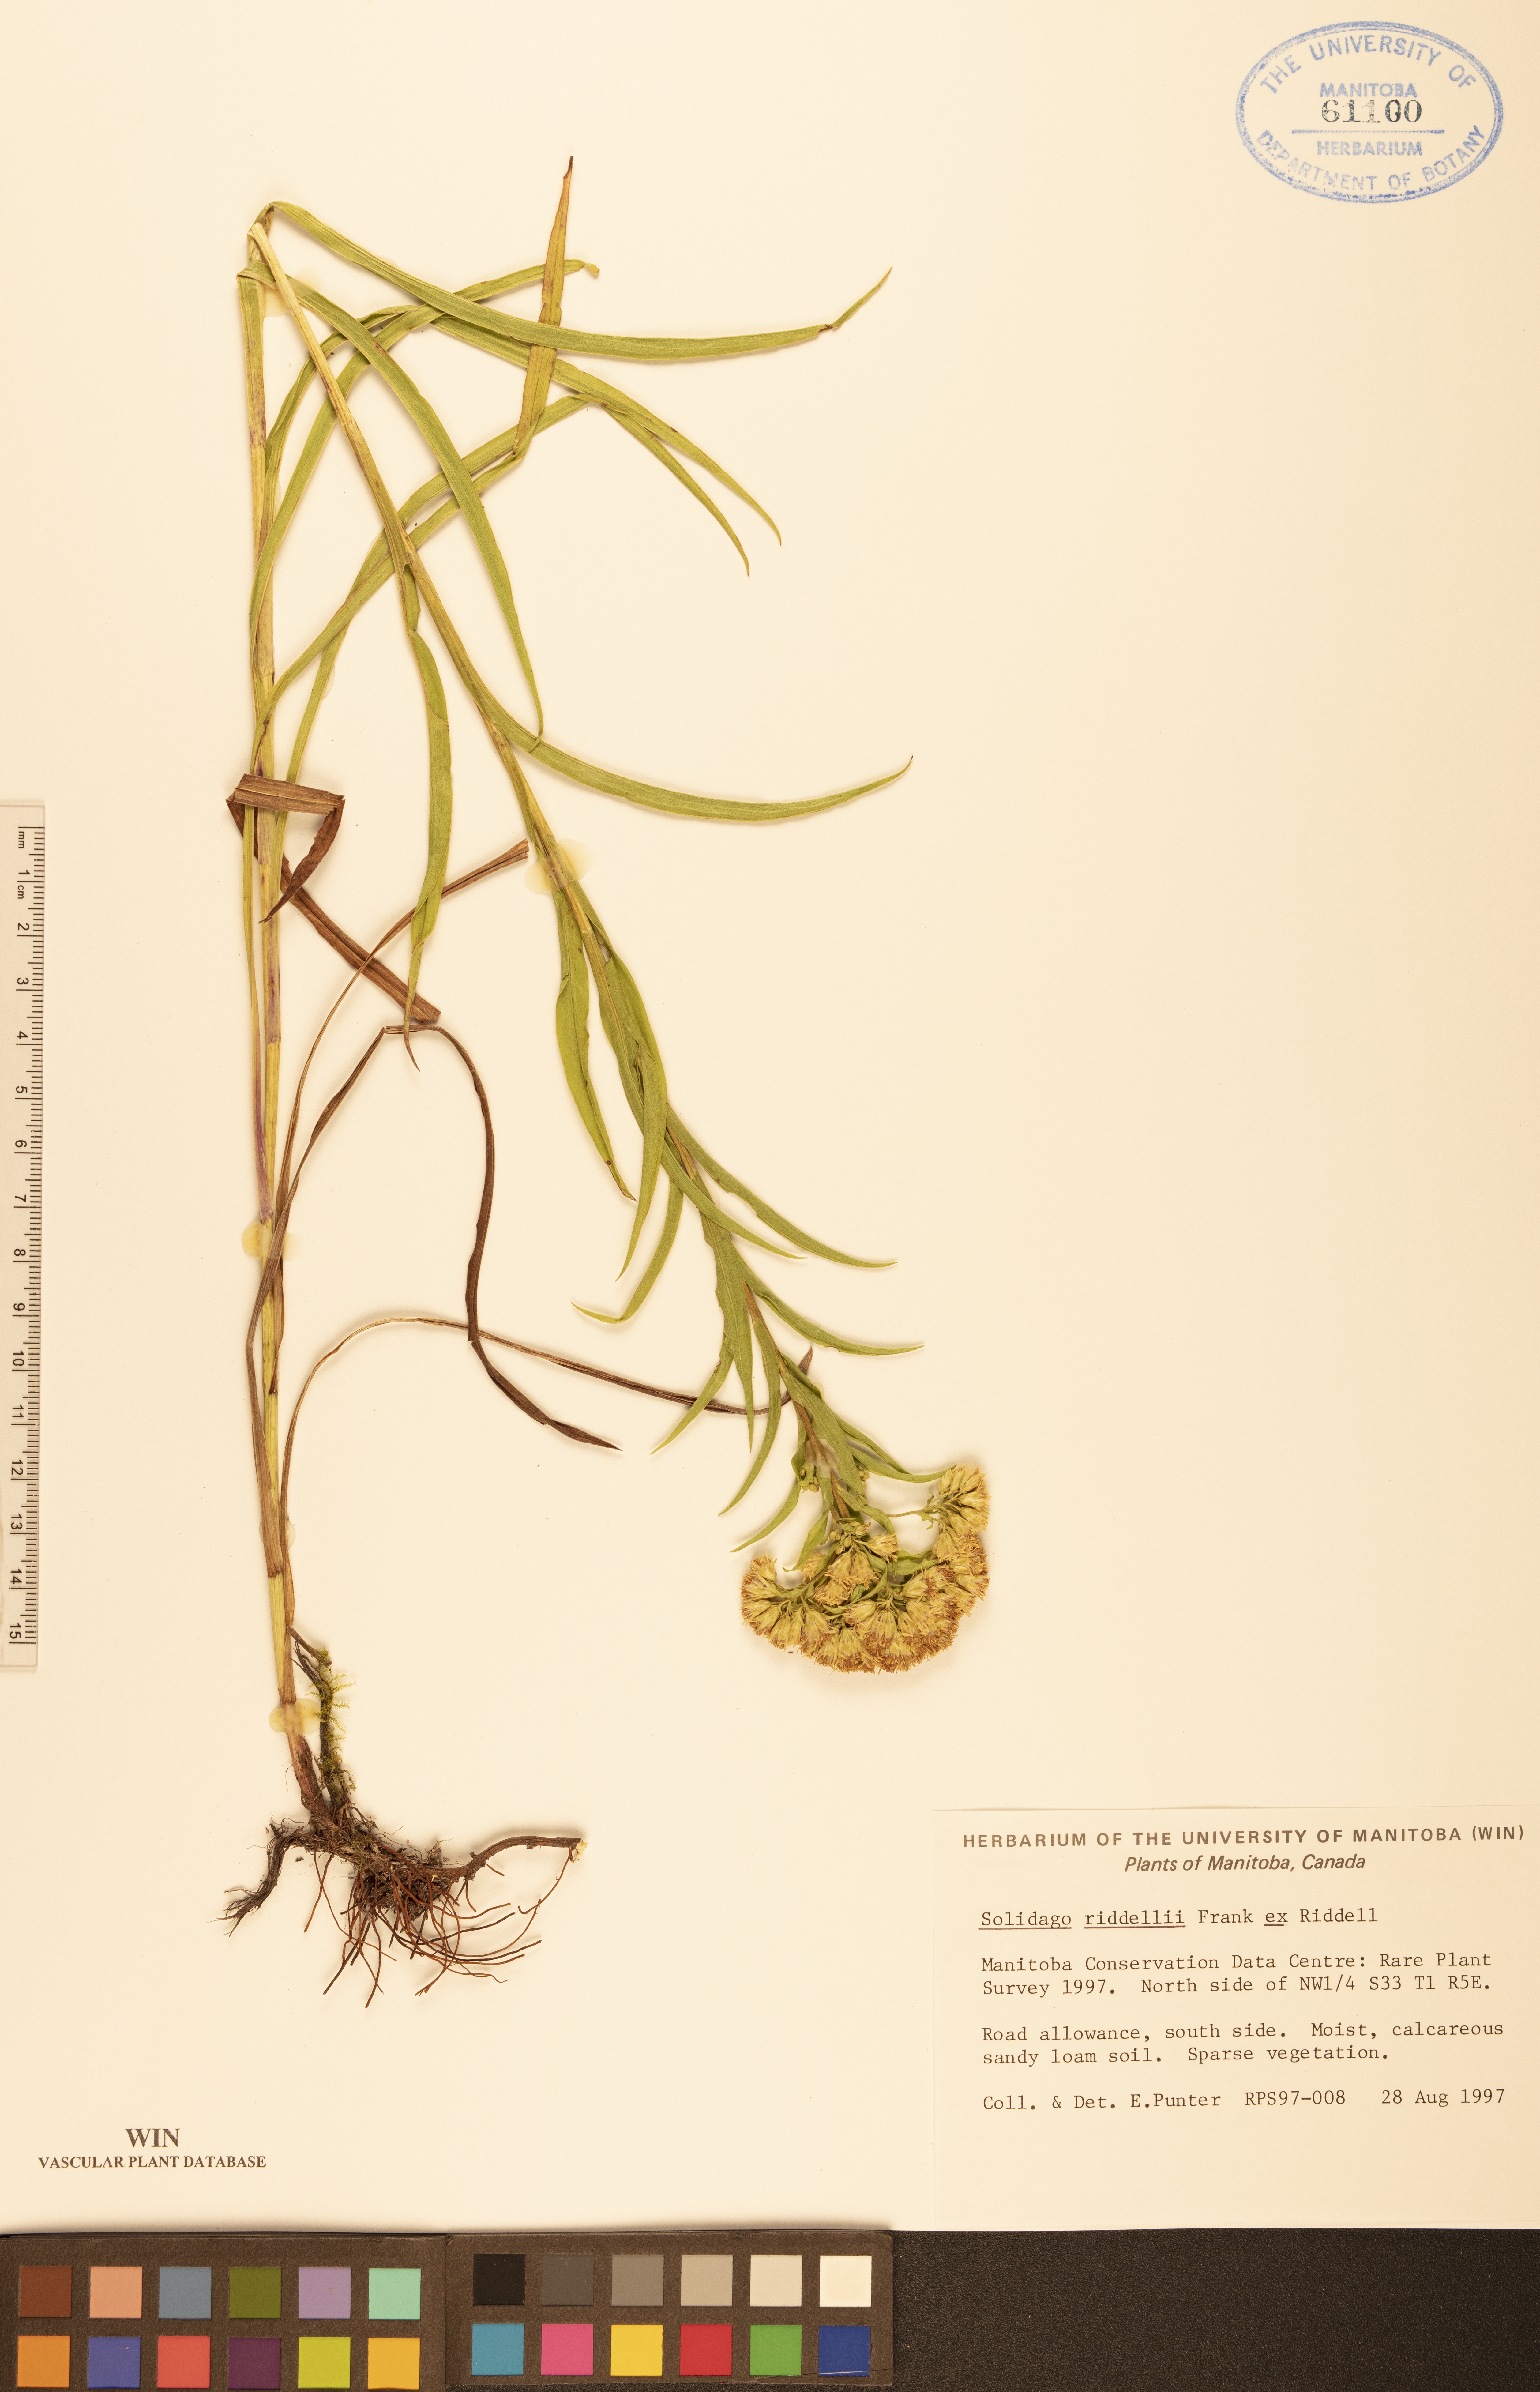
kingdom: Plantae
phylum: Tracheophyta
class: Magnoliopsida
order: Asterales
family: Asteraceae
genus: Solidago
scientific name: Solidago riddellii
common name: Riddell's goldenrod
